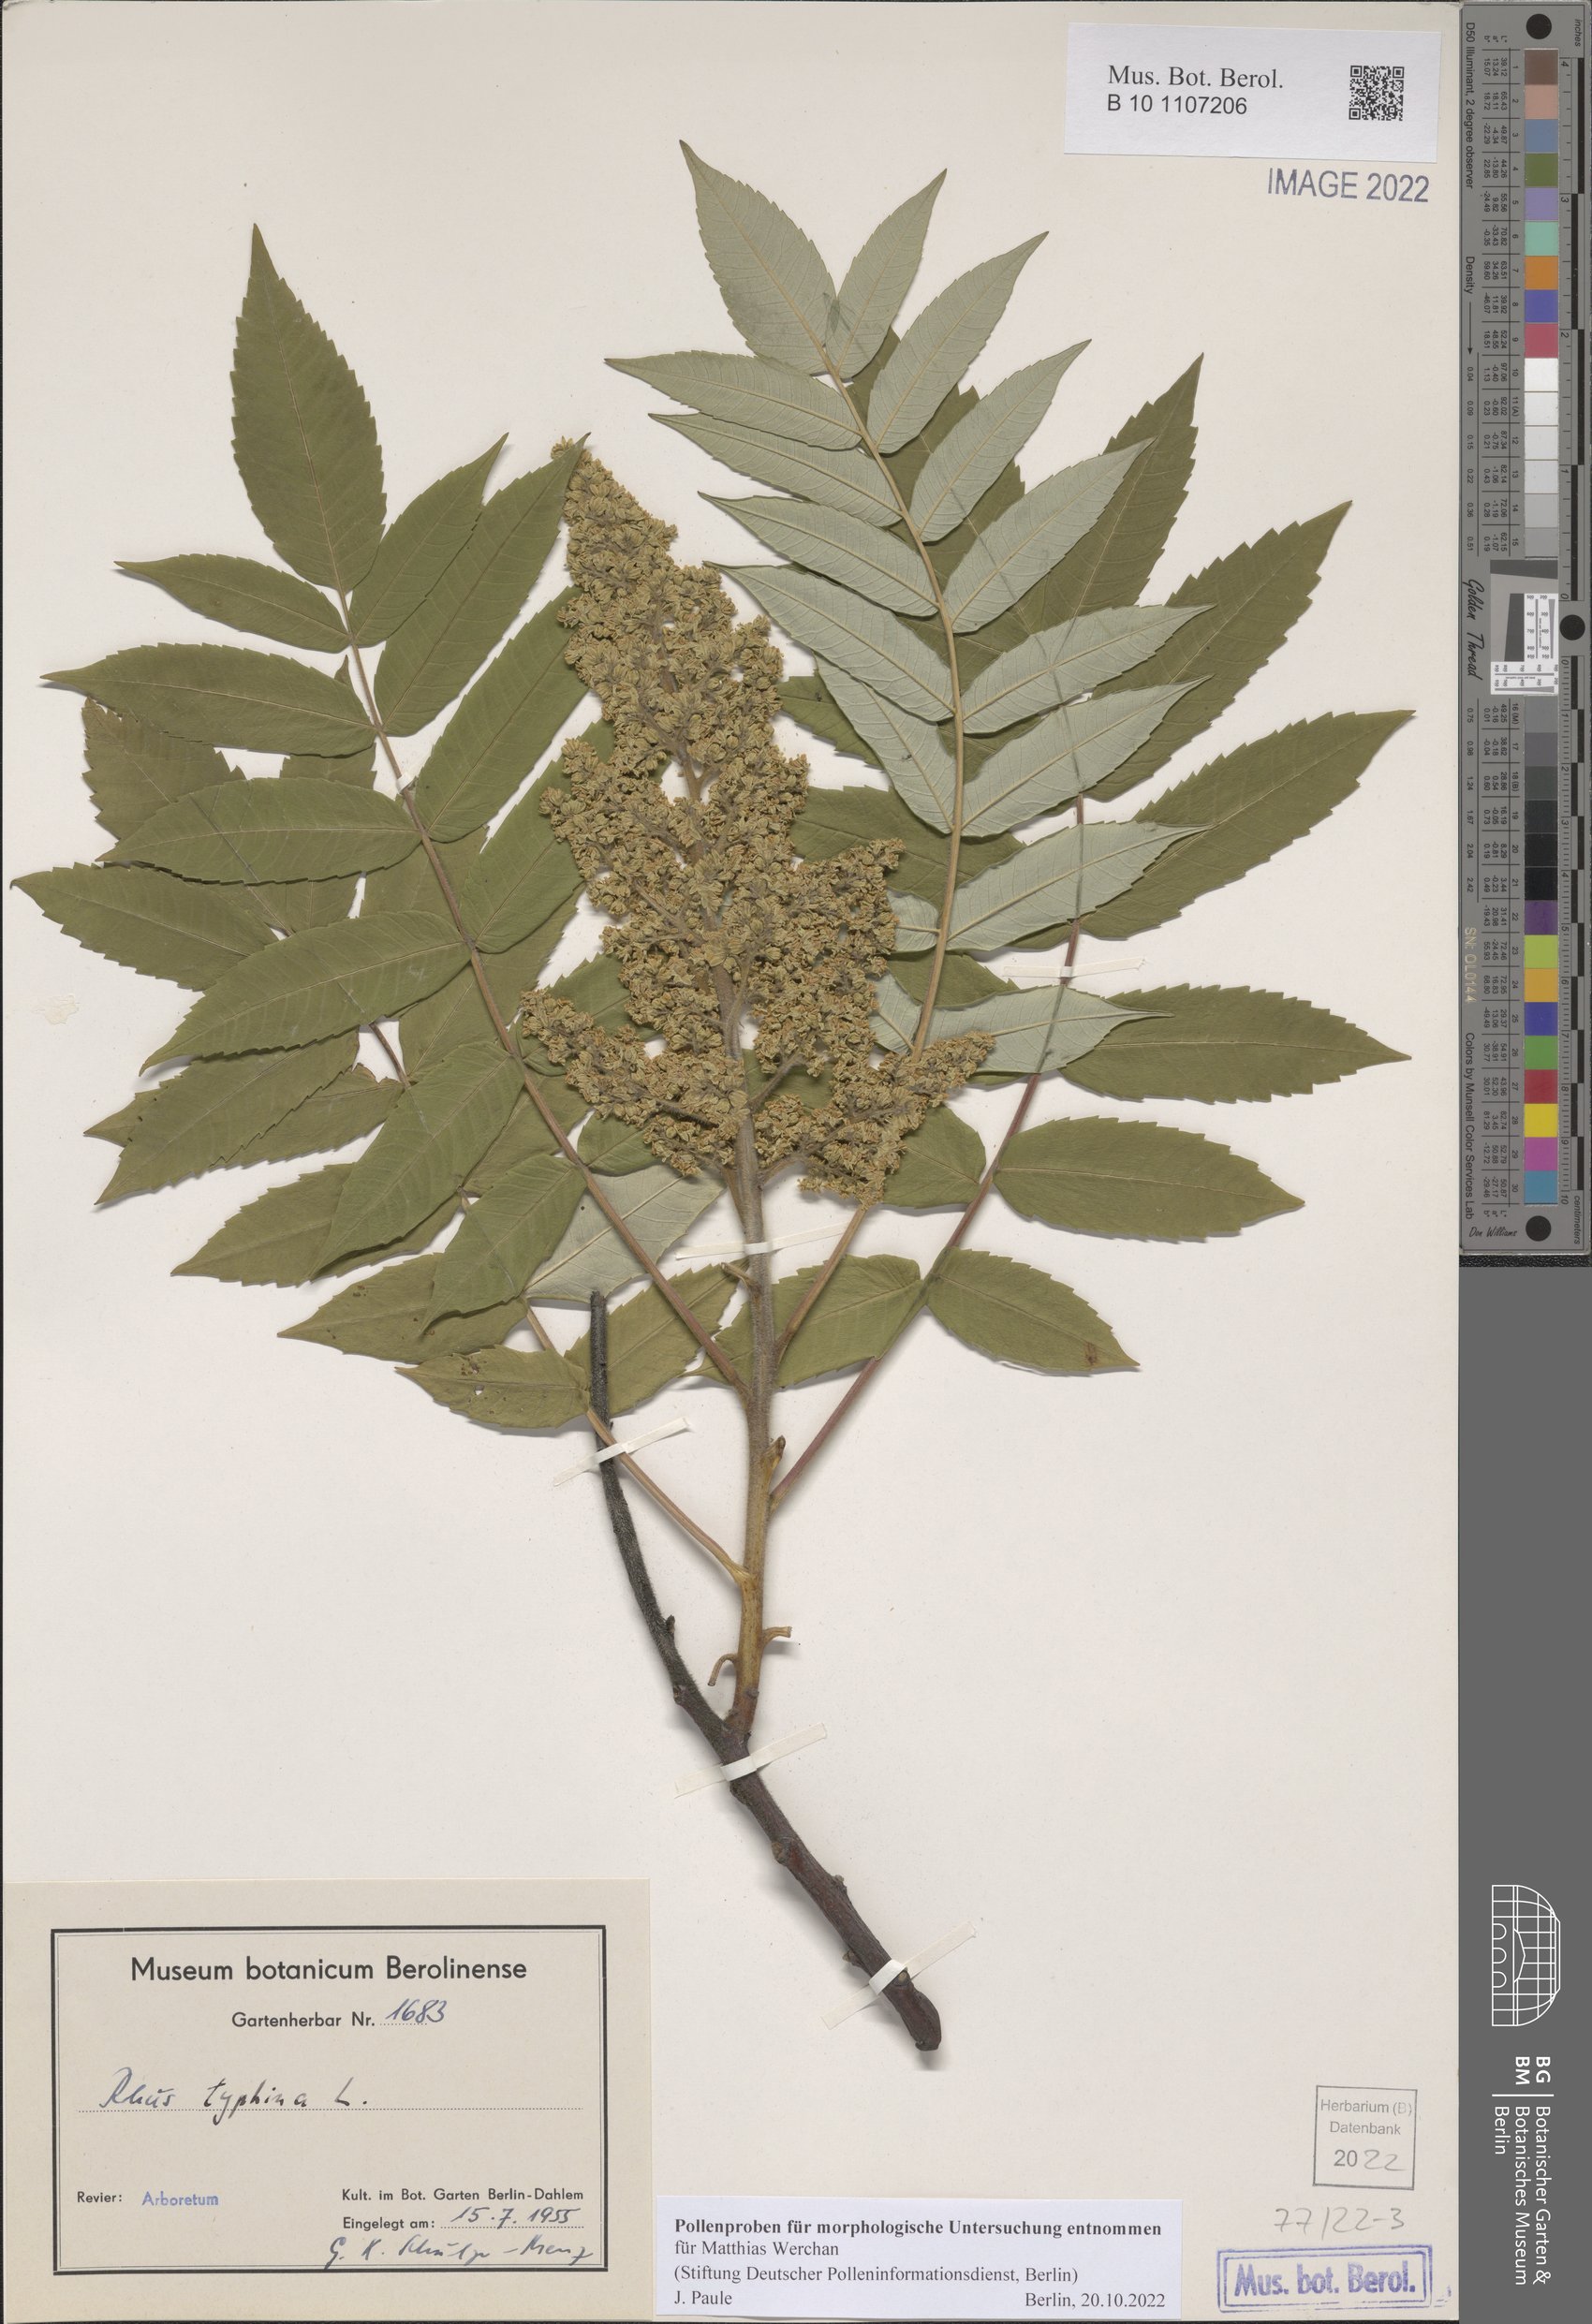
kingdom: Plantae
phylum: Tracheophyta
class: Magnoliopsida
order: Sapindales
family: Anacardiaceae
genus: Rhus
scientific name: Rhus typhina
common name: Staghorn sumac
